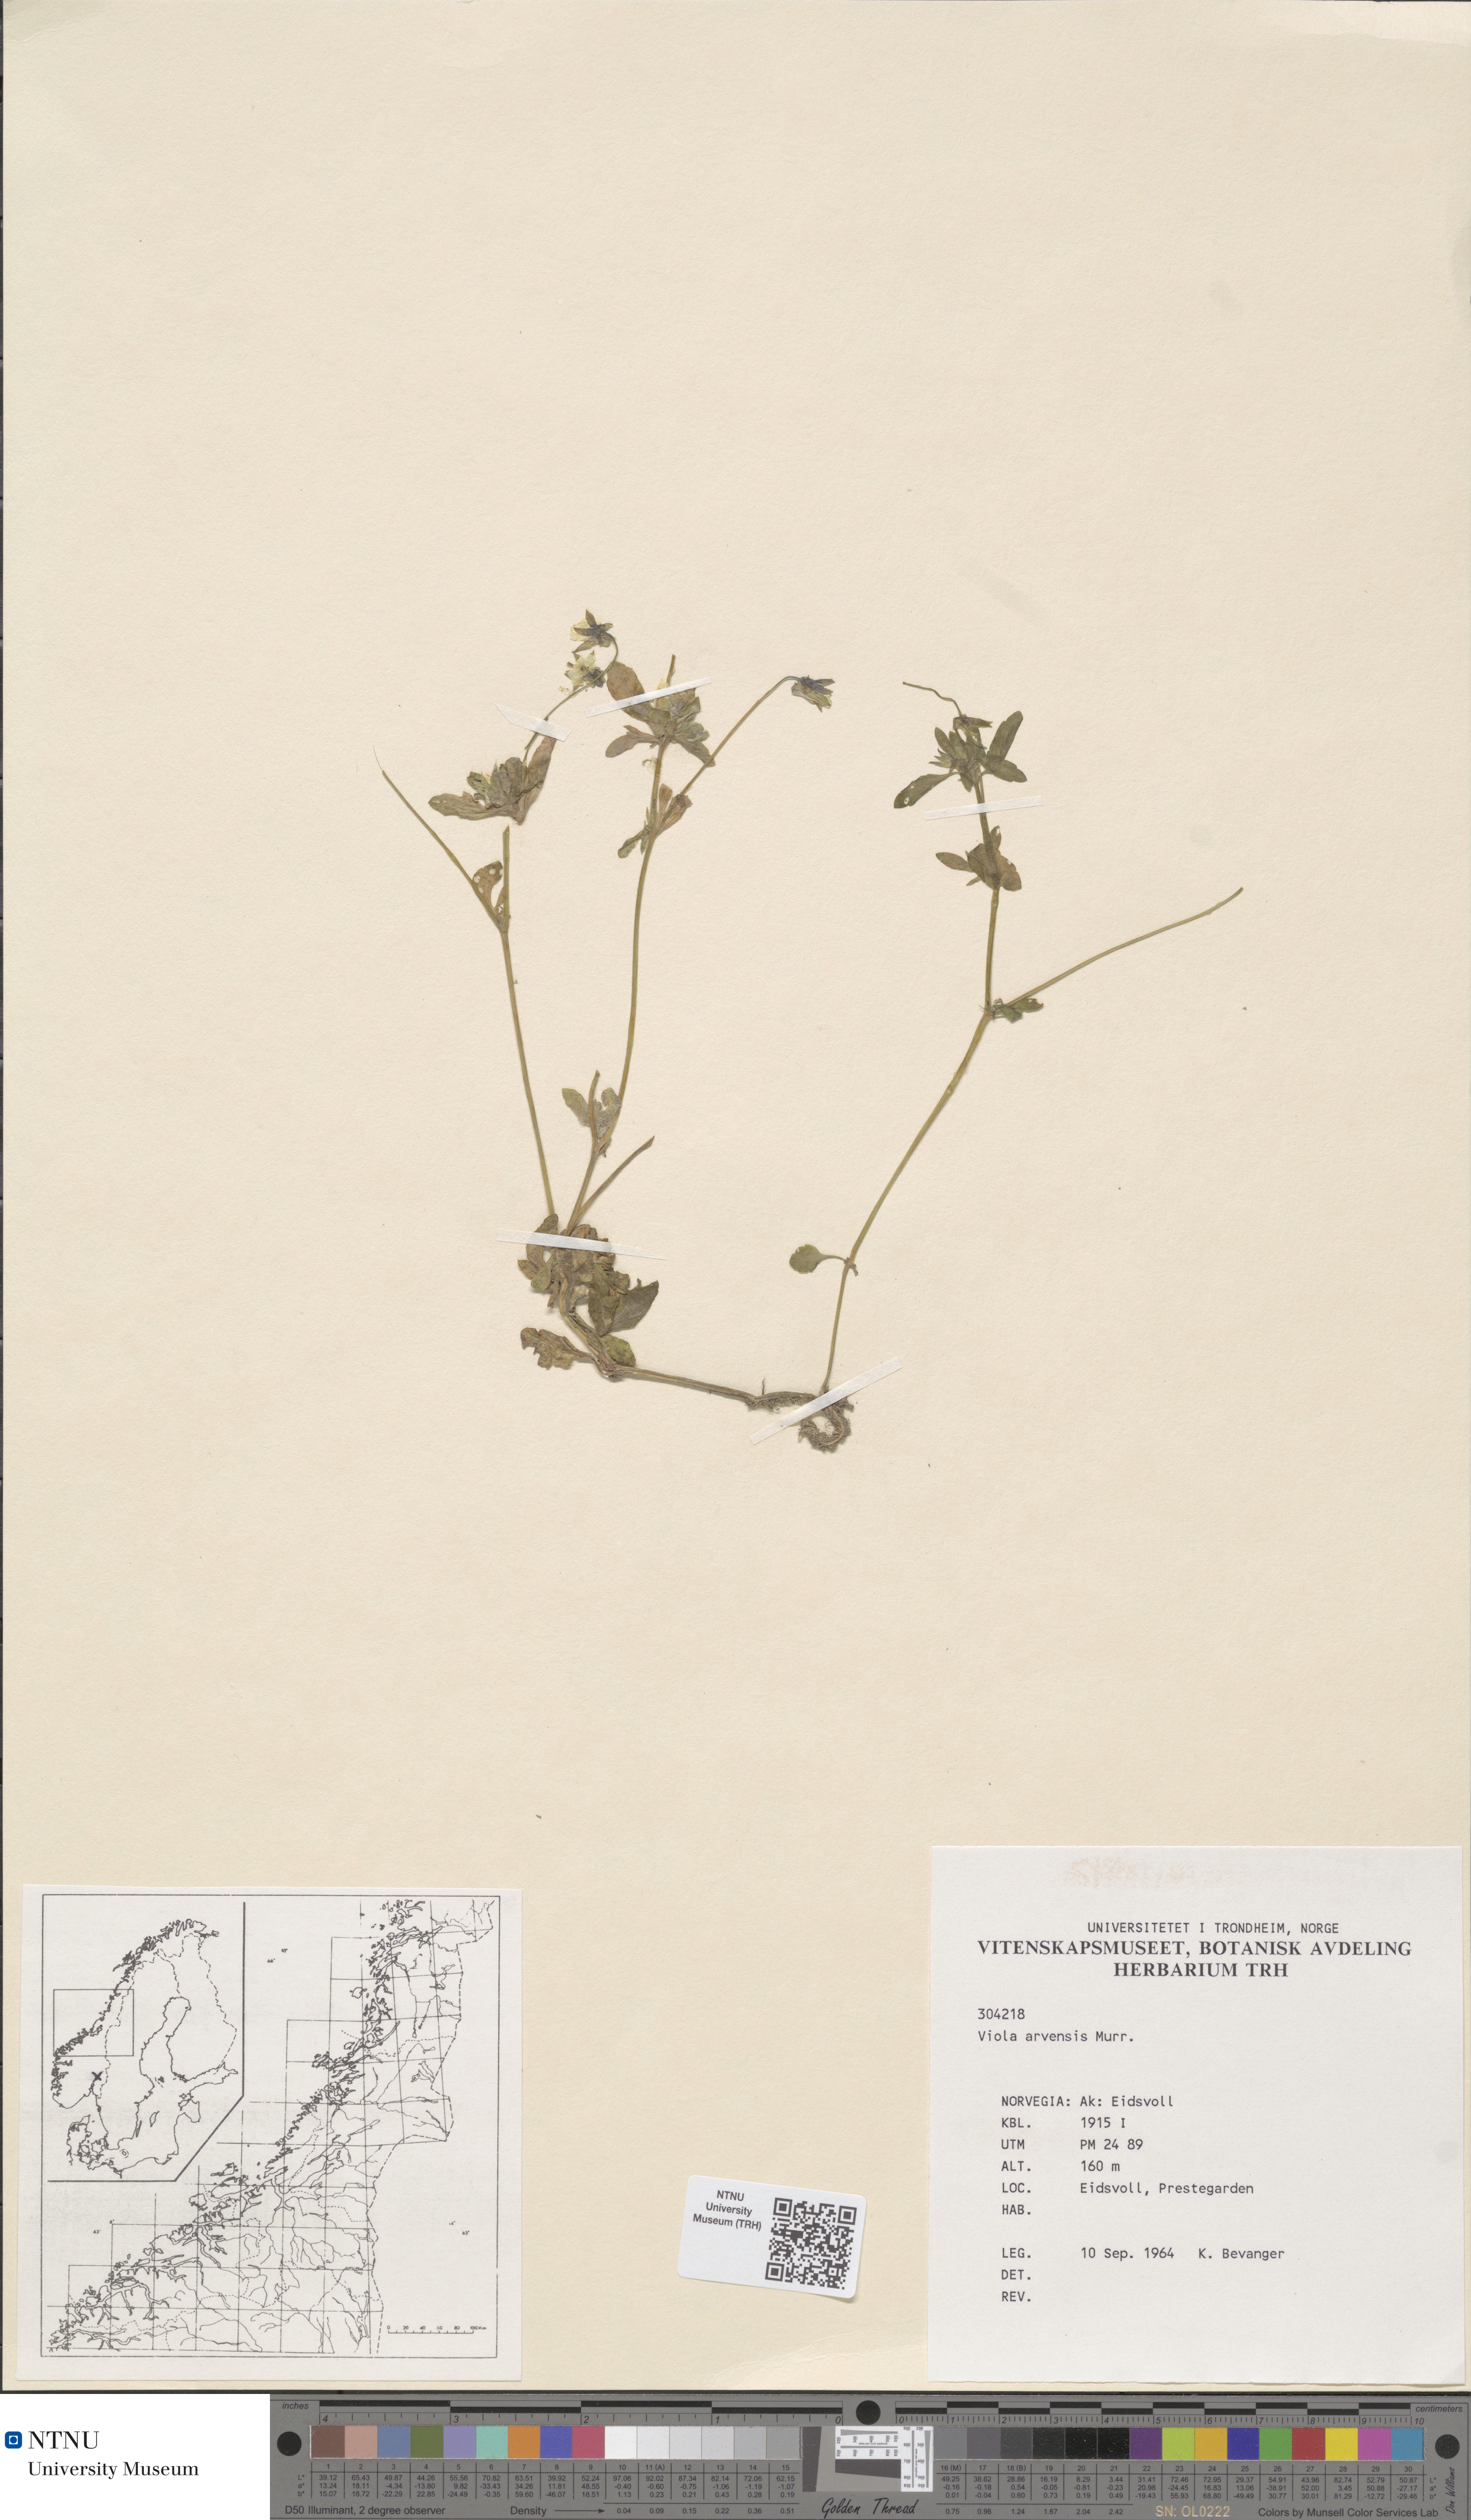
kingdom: Plantae
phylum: Tracheophyta
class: Magnoliopsida
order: Malpighiales
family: Violaceae
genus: Viola
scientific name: Viola arvensis
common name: Field pansy
